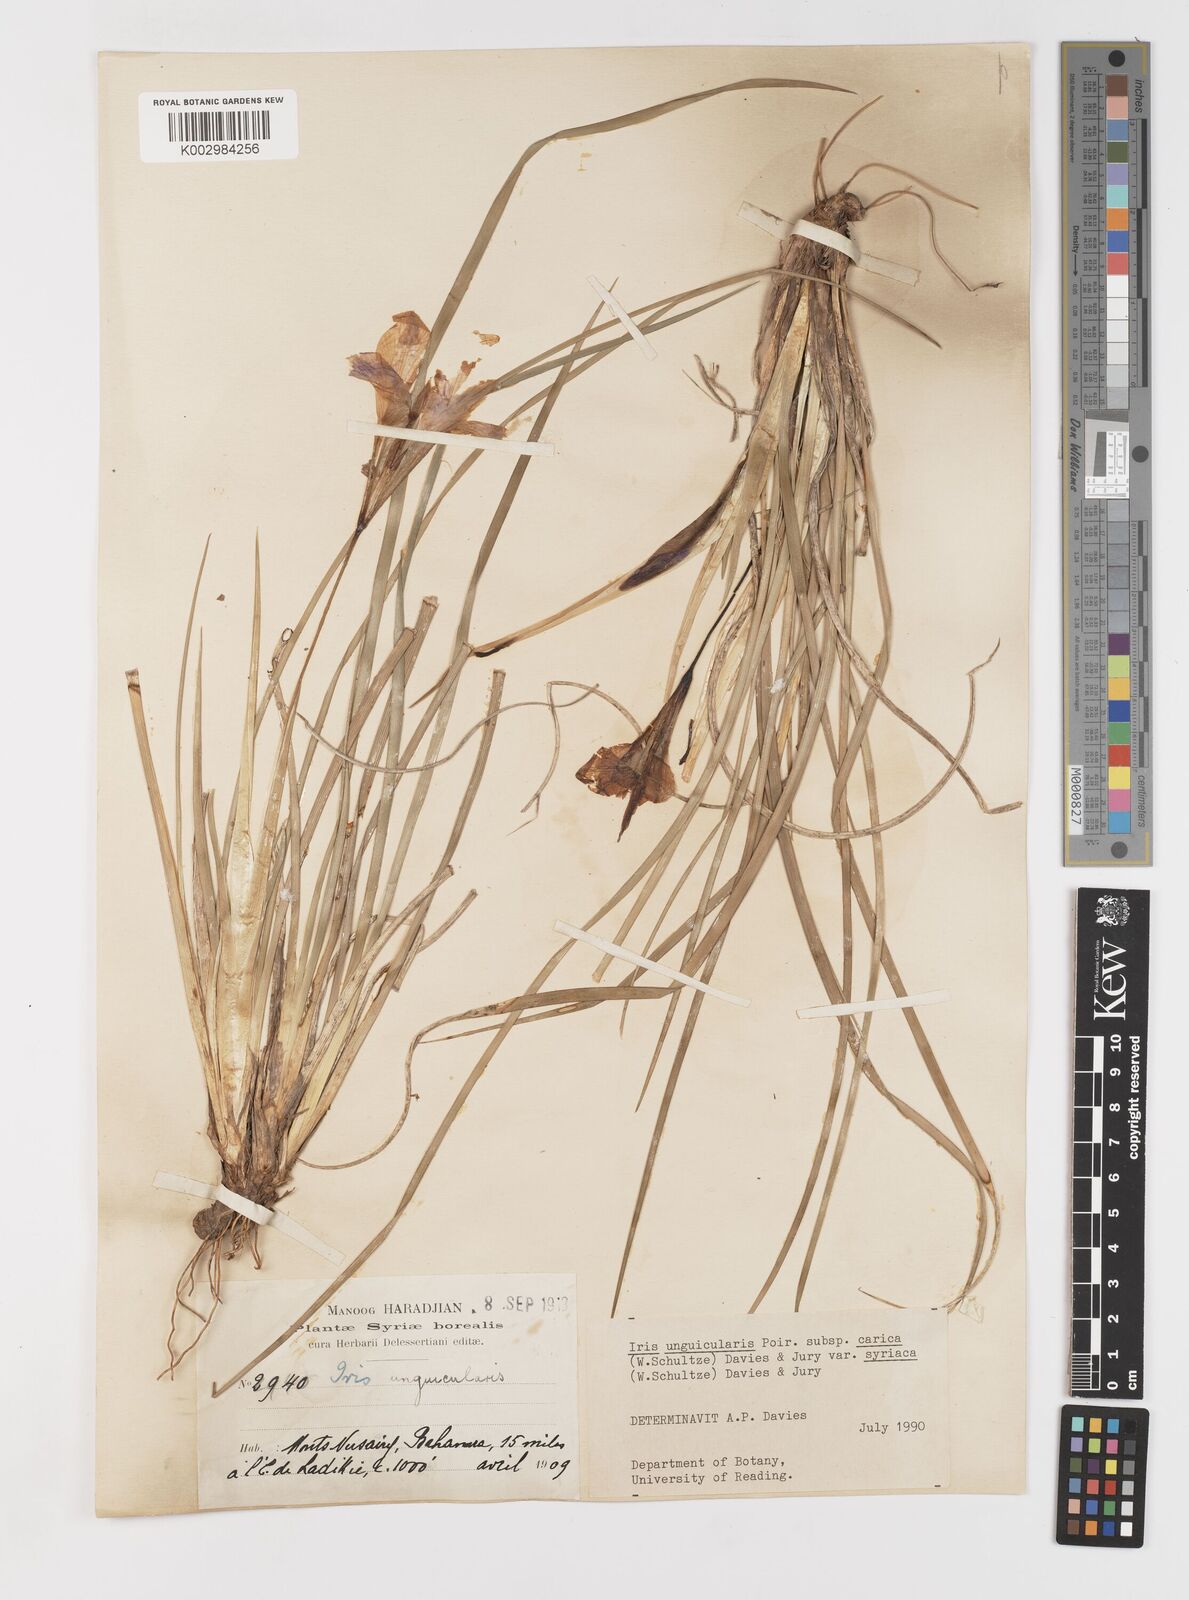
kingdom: Plantae
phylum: Tracheophyta
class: Liliopsida
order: Asparagales
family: Iridaceae
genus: Iris
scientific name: Iris unguicularis
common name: Algerian iris
